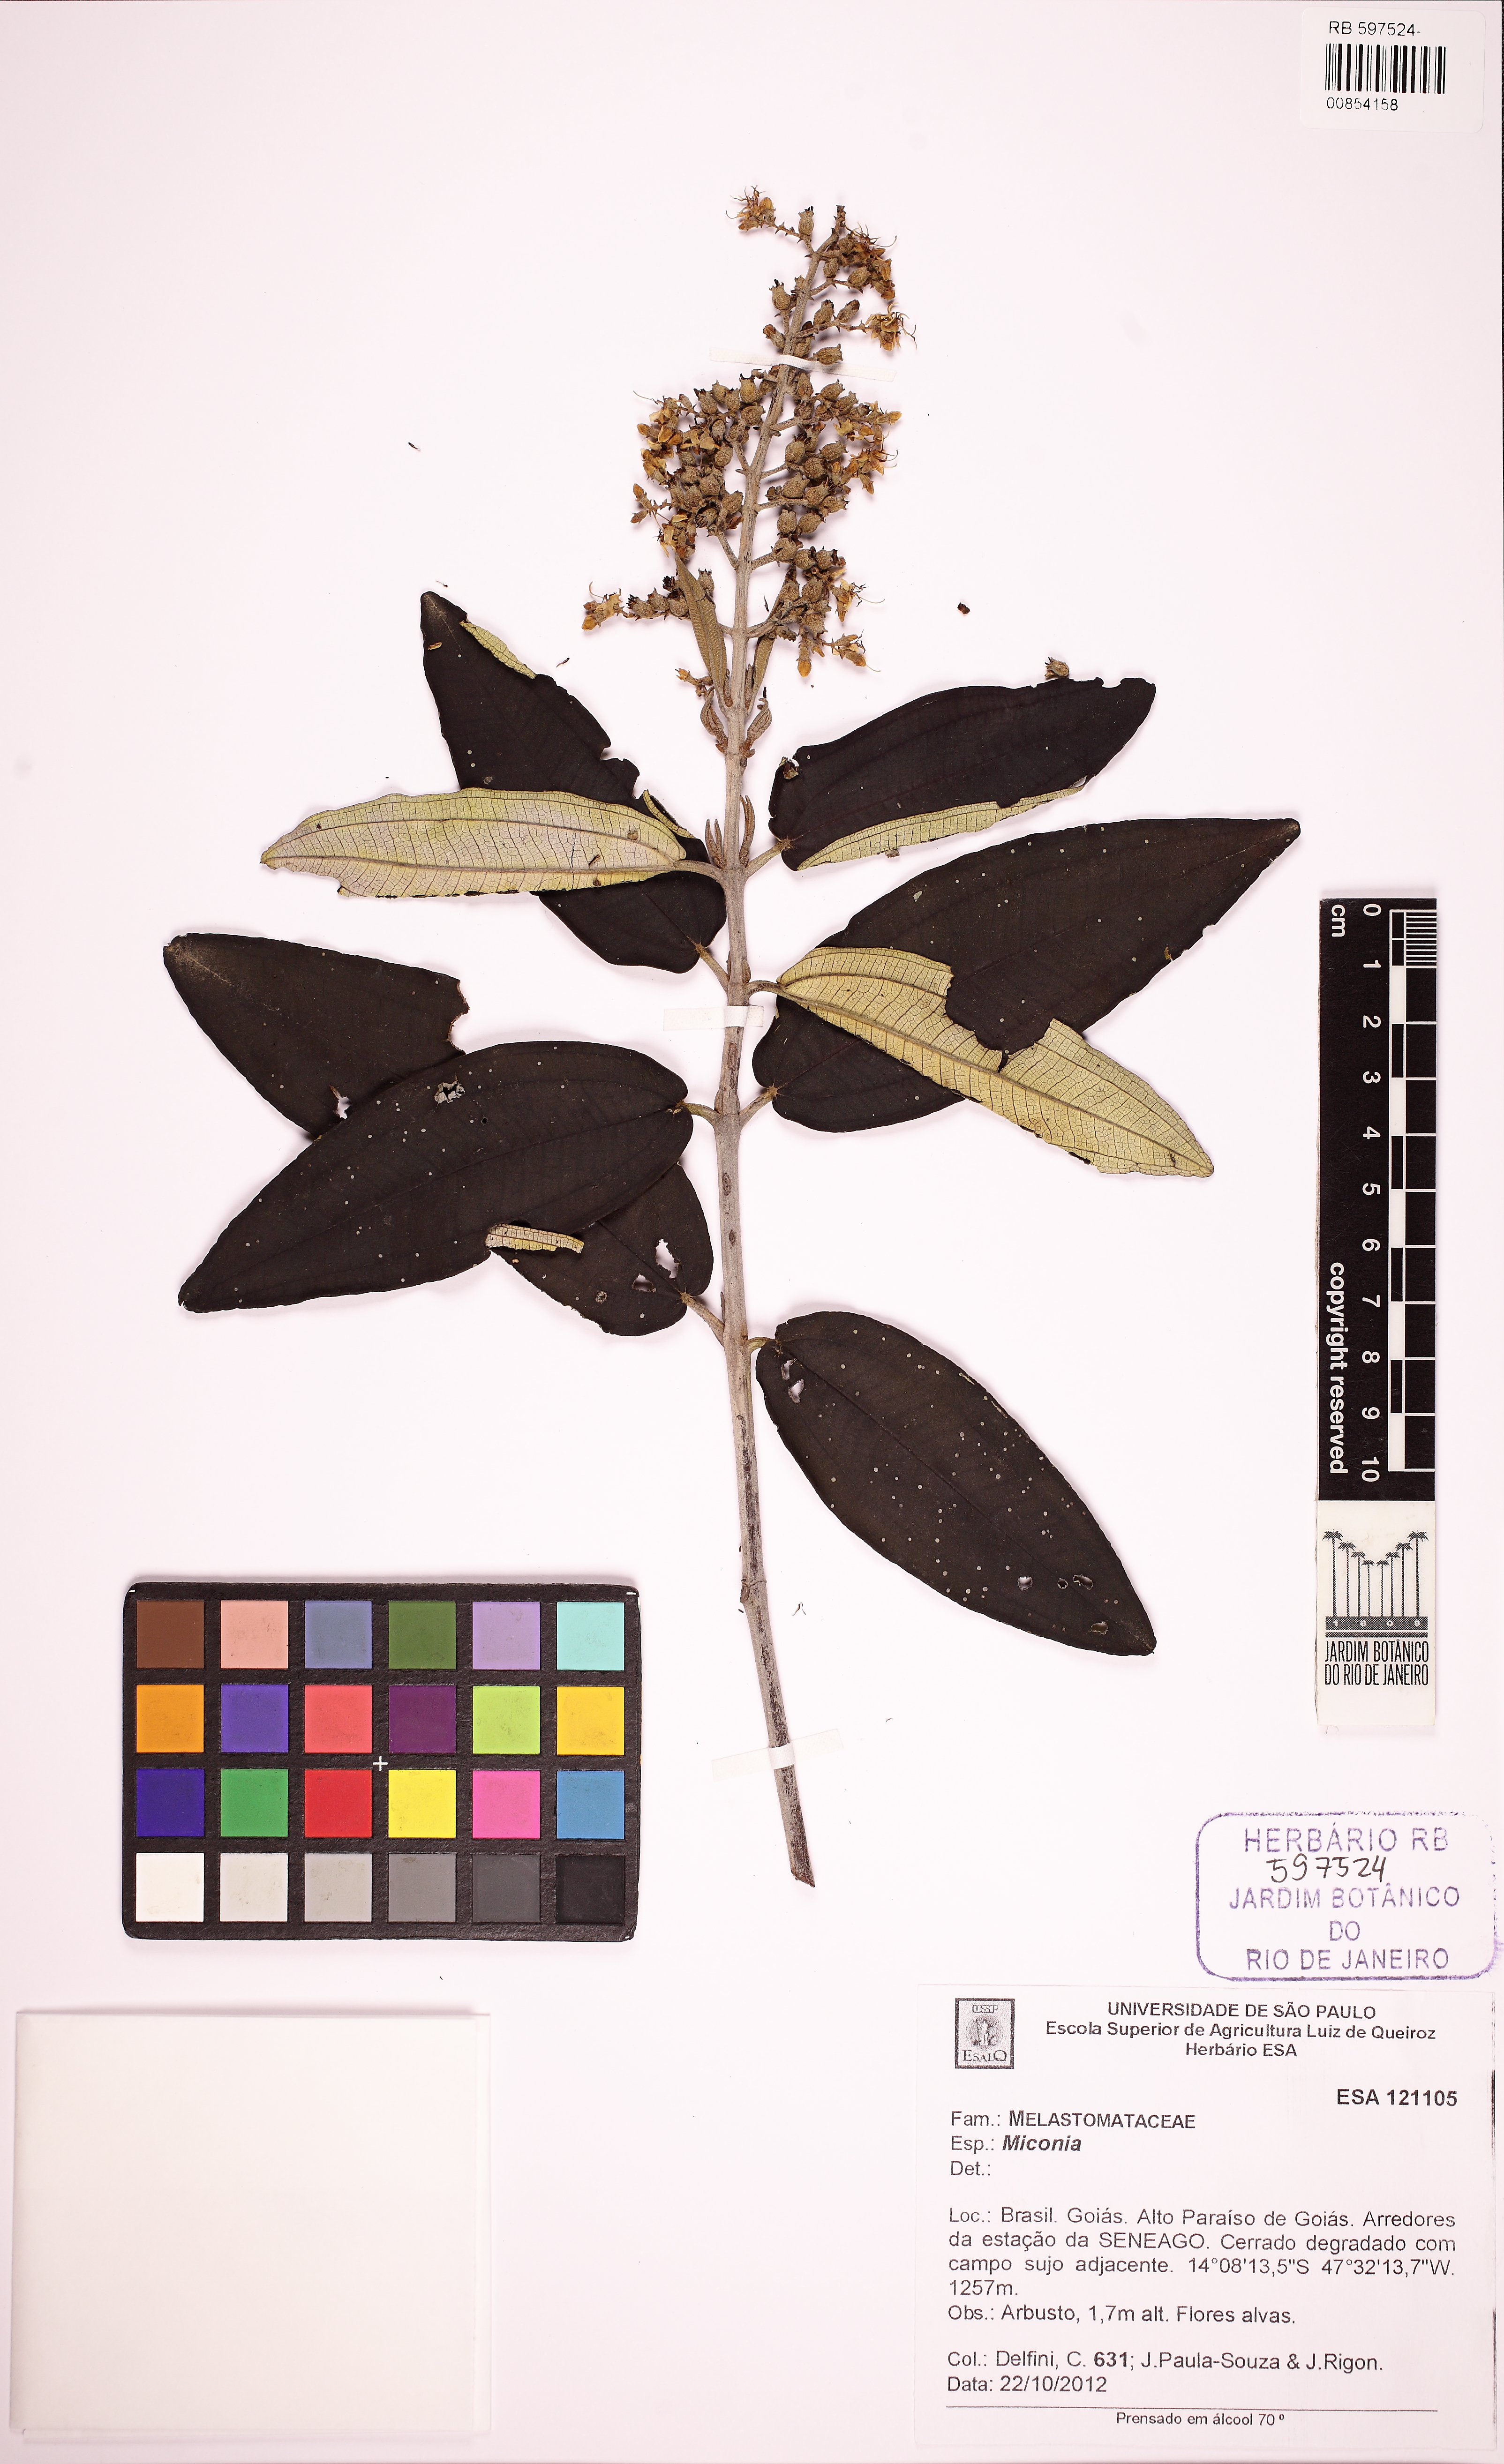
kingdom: Plantae
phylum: Tracheophyta
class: Magnoliopsida
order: Myrtales
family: Melastomataceae
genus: Miconia
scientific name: Miconia stenostachya
